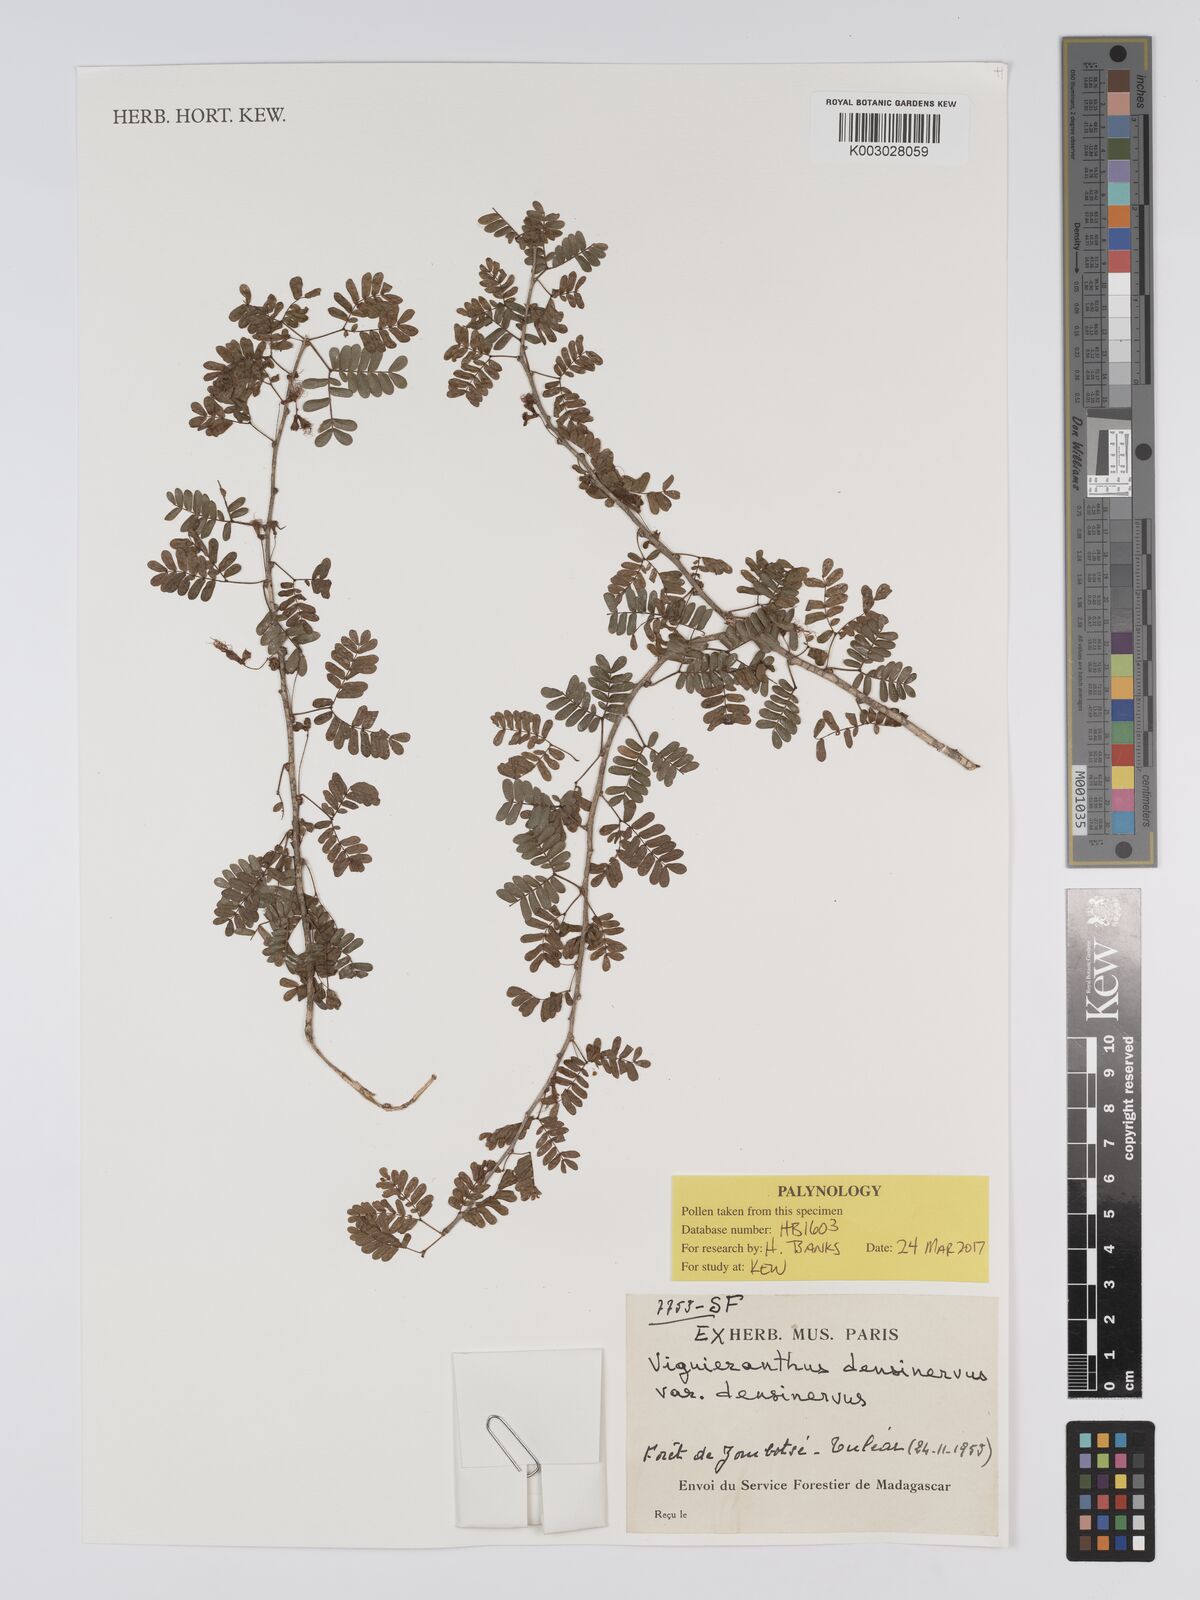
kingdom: Plantae
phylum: Tracheophyta
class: Magnoliopsida
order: Fabales
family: Fabaceae
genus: Viguieranthus
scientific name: Viguieranthus densinervus
